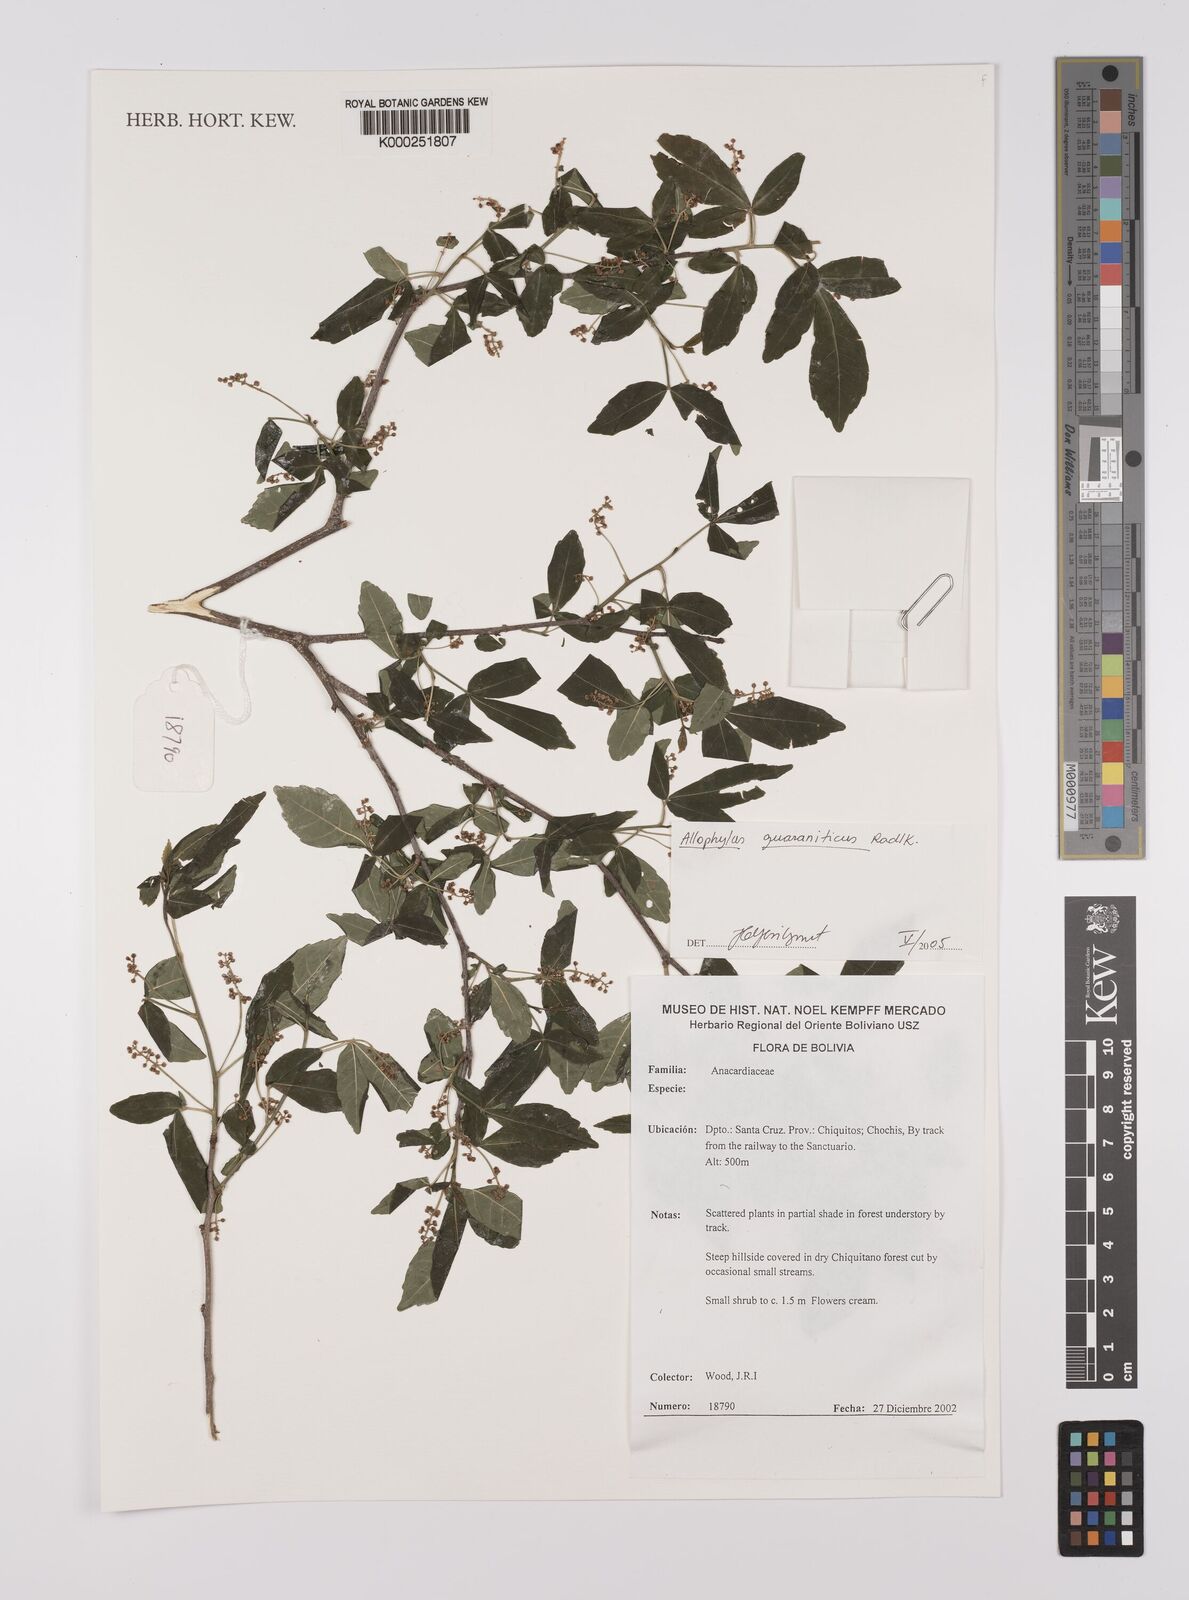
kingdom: Plantae
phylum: Tracheophyta
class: Magnoliopsida
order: Sapindales
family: Sapindaceae
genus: Allophylus
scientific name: Allophylus guaraniticus
